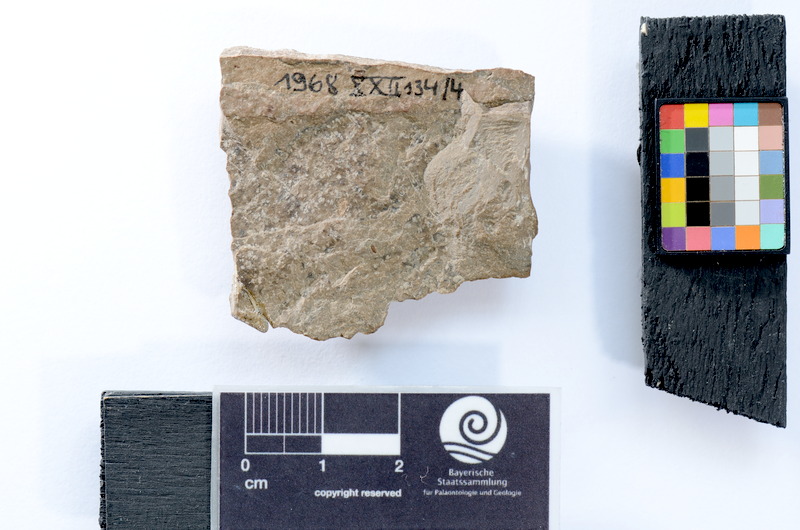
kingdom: Animalia
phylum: Chordata
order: Gonorynchiformes
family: Chanidae
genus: Rubiesichthys
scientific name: Rubiesichthys gregalis
